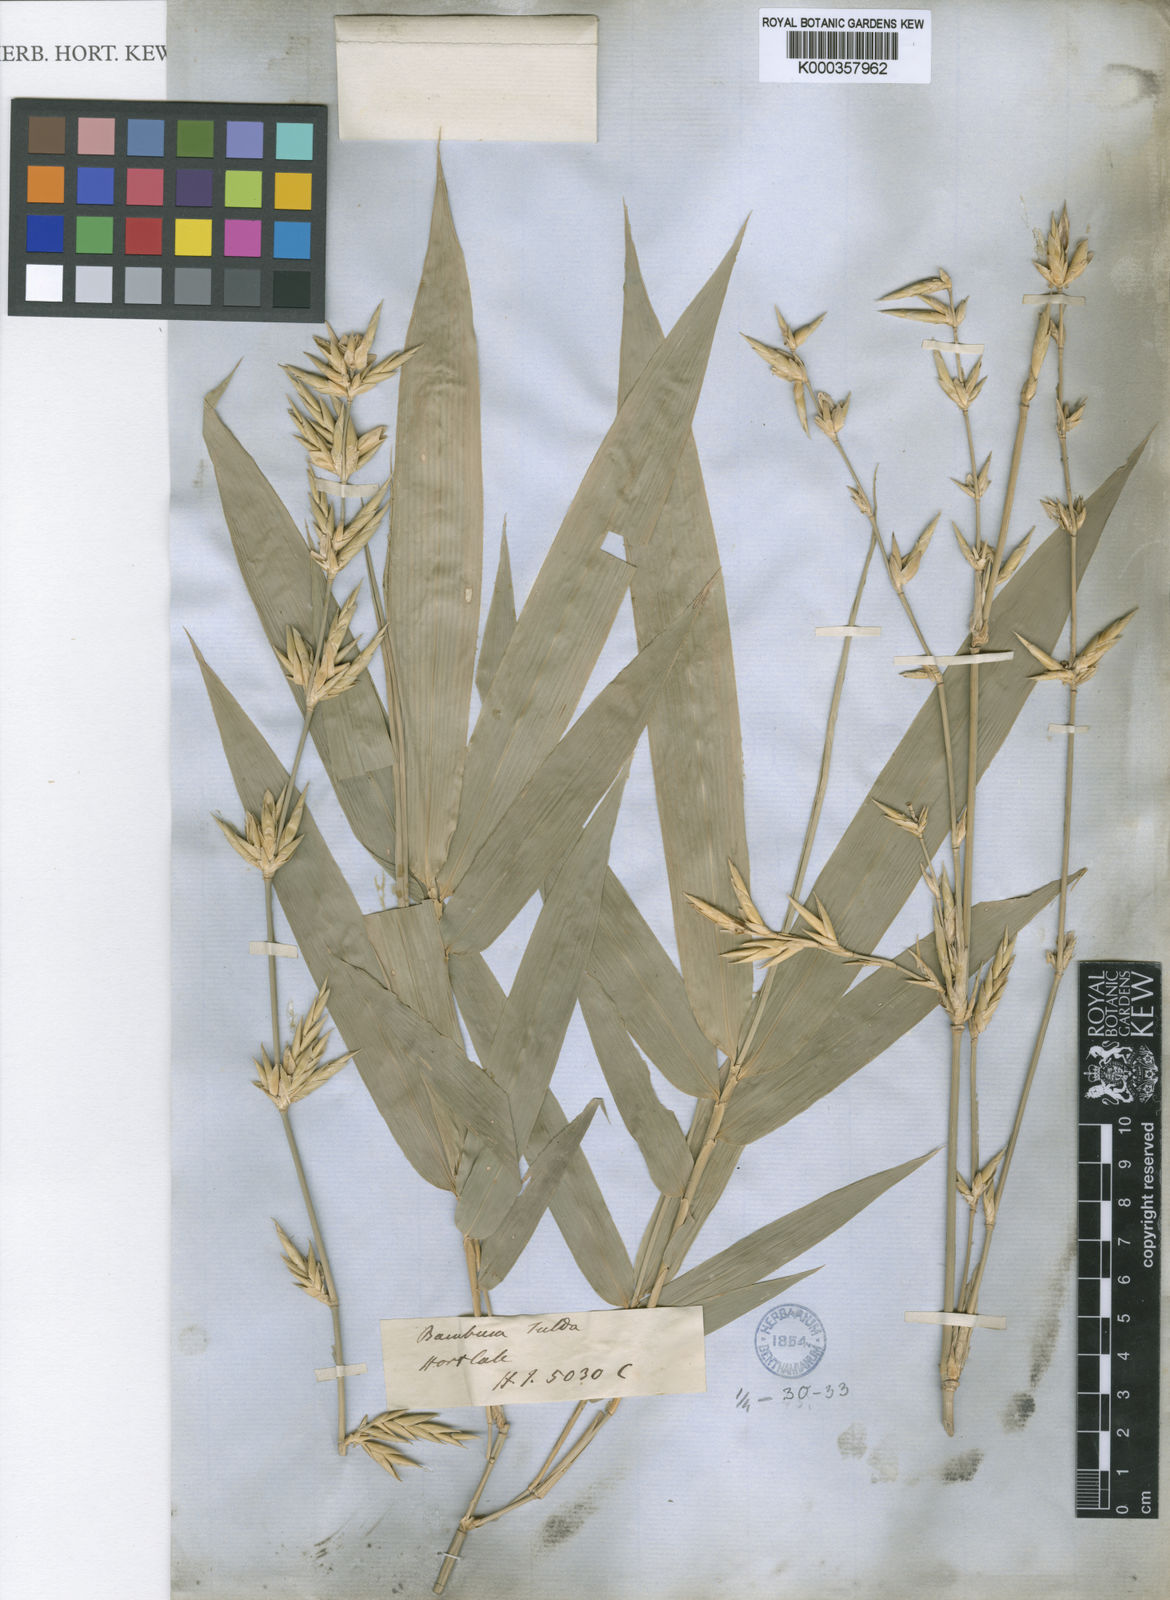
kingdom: Plantae
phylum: Tracheophyta
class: Liliopsida
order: Poales
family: Poaceae
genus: Bambusa
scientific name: Bambusa tulda
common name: Bengal bamboo
